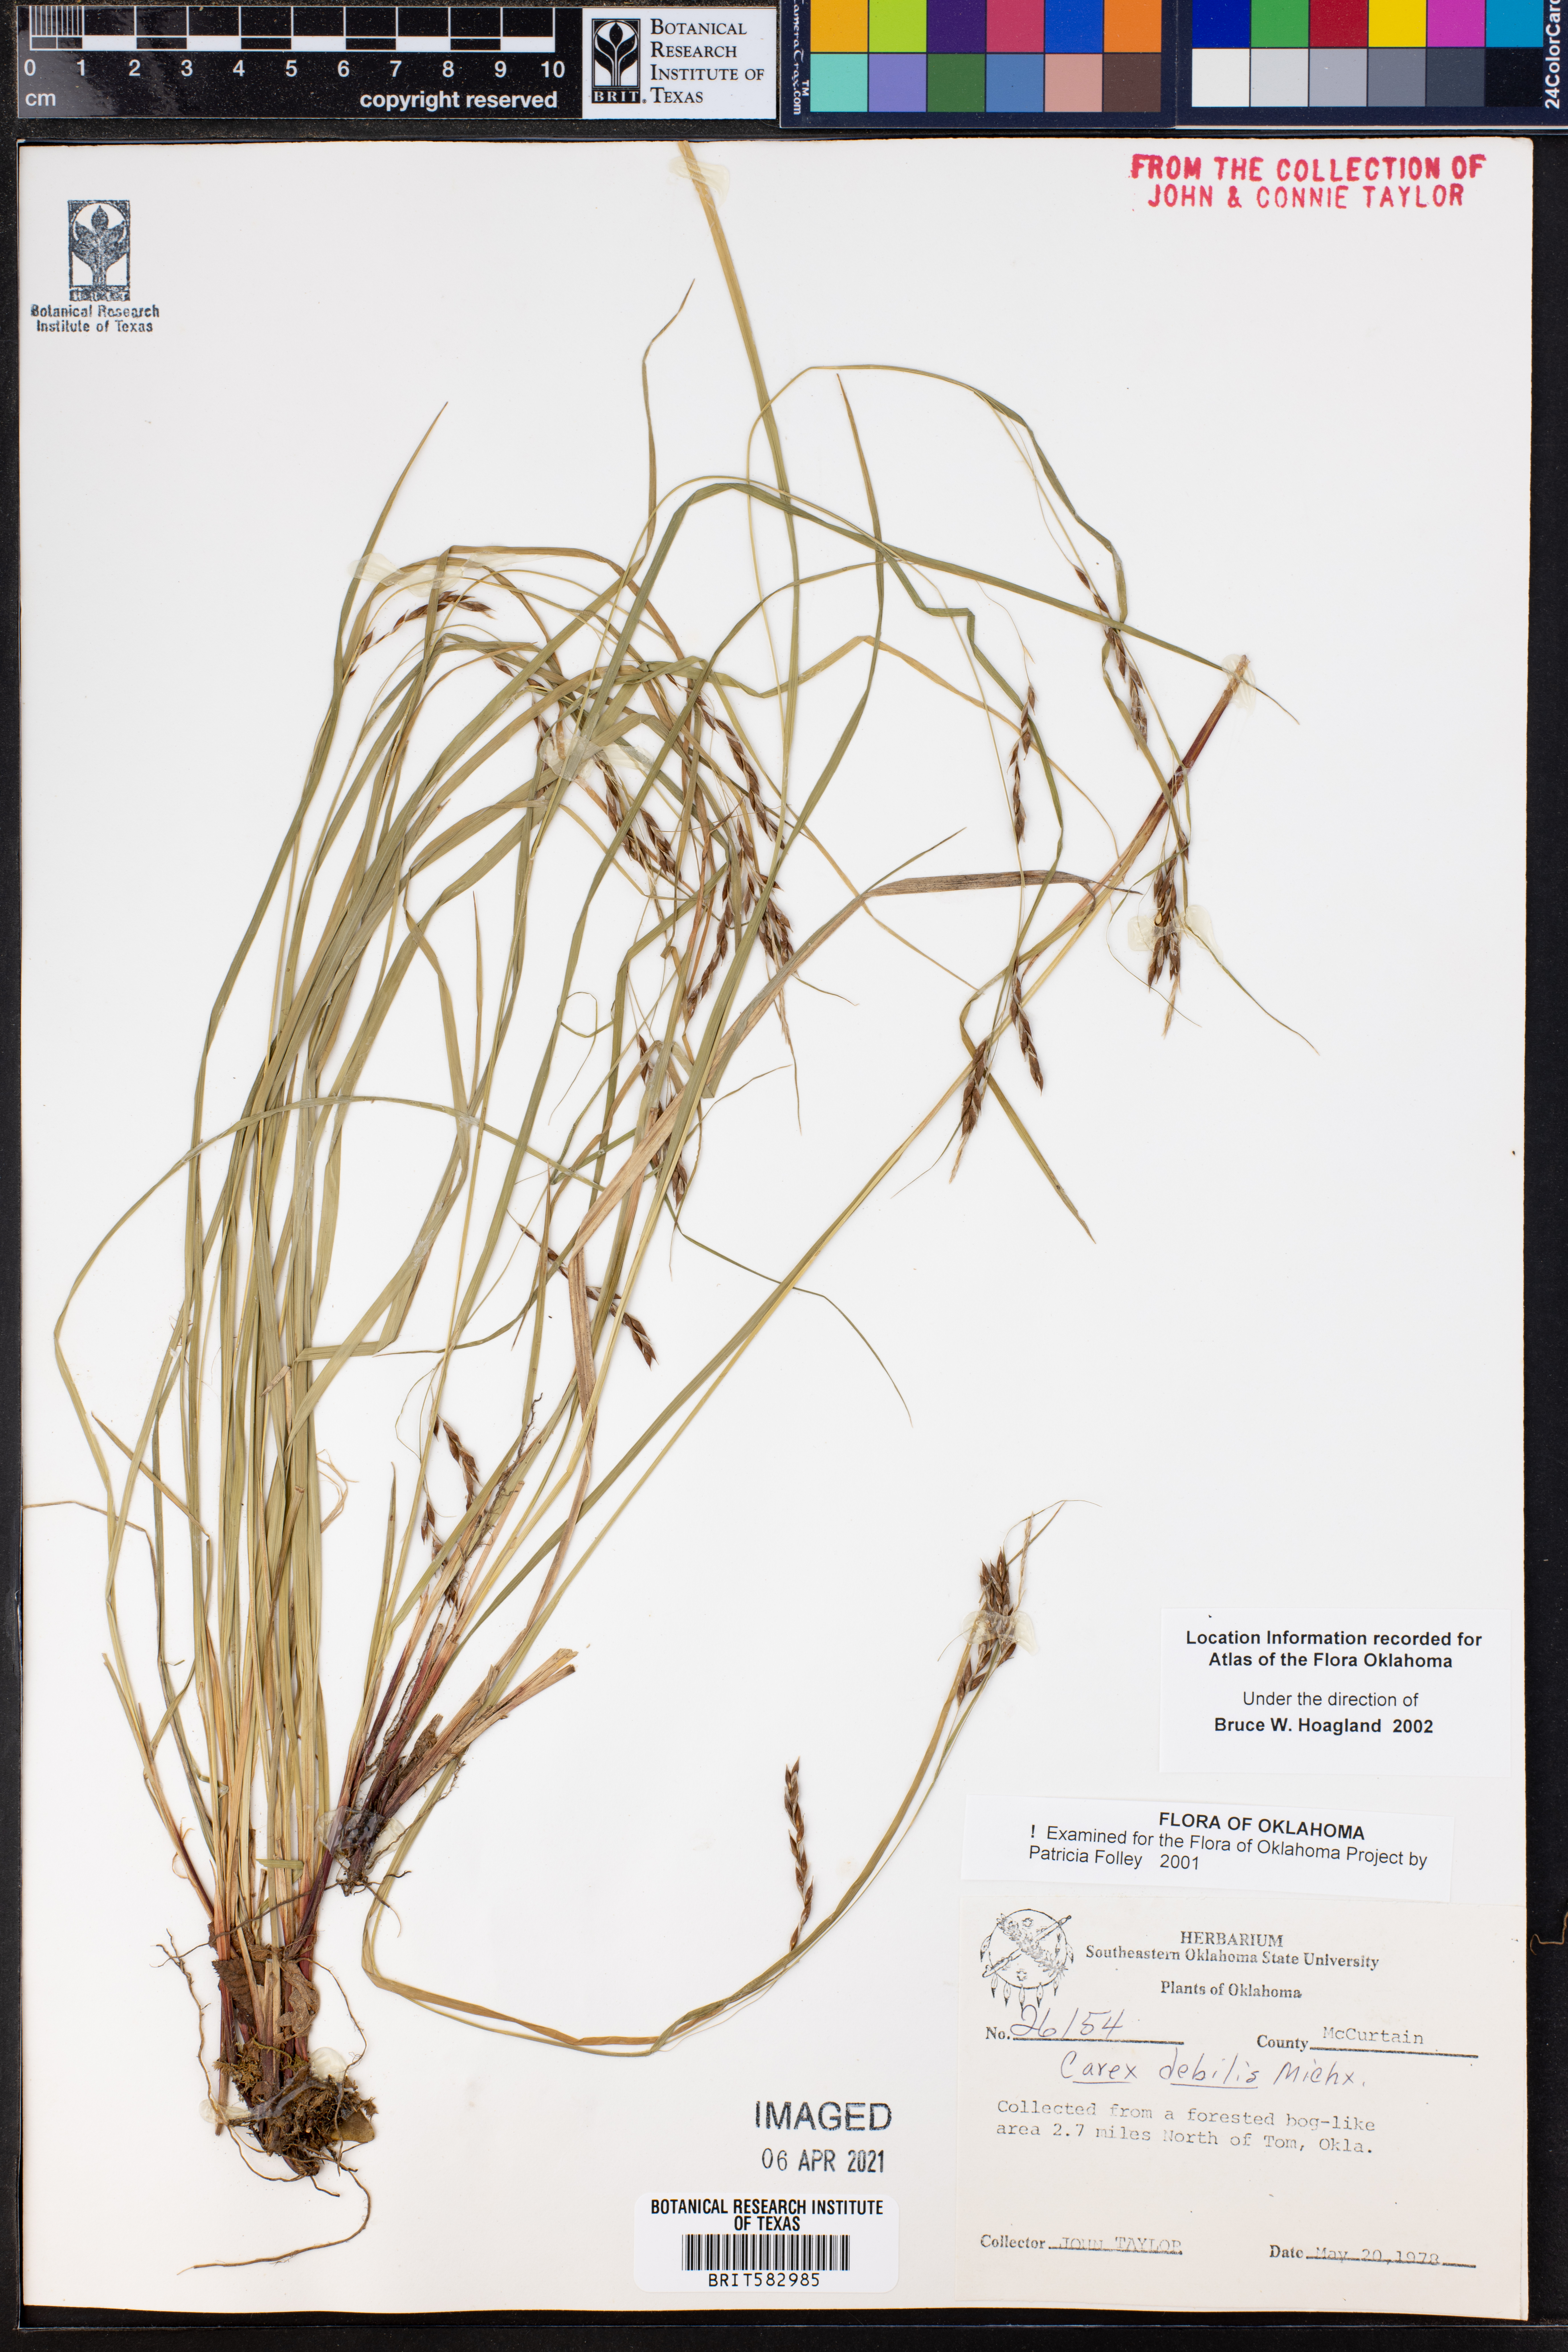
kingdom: Plantae
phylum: Tracheophyta
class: Liliopsida
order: Poales
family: Cyperaceae
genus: Carex
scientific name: Carex debilis
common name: White-edge sedge
